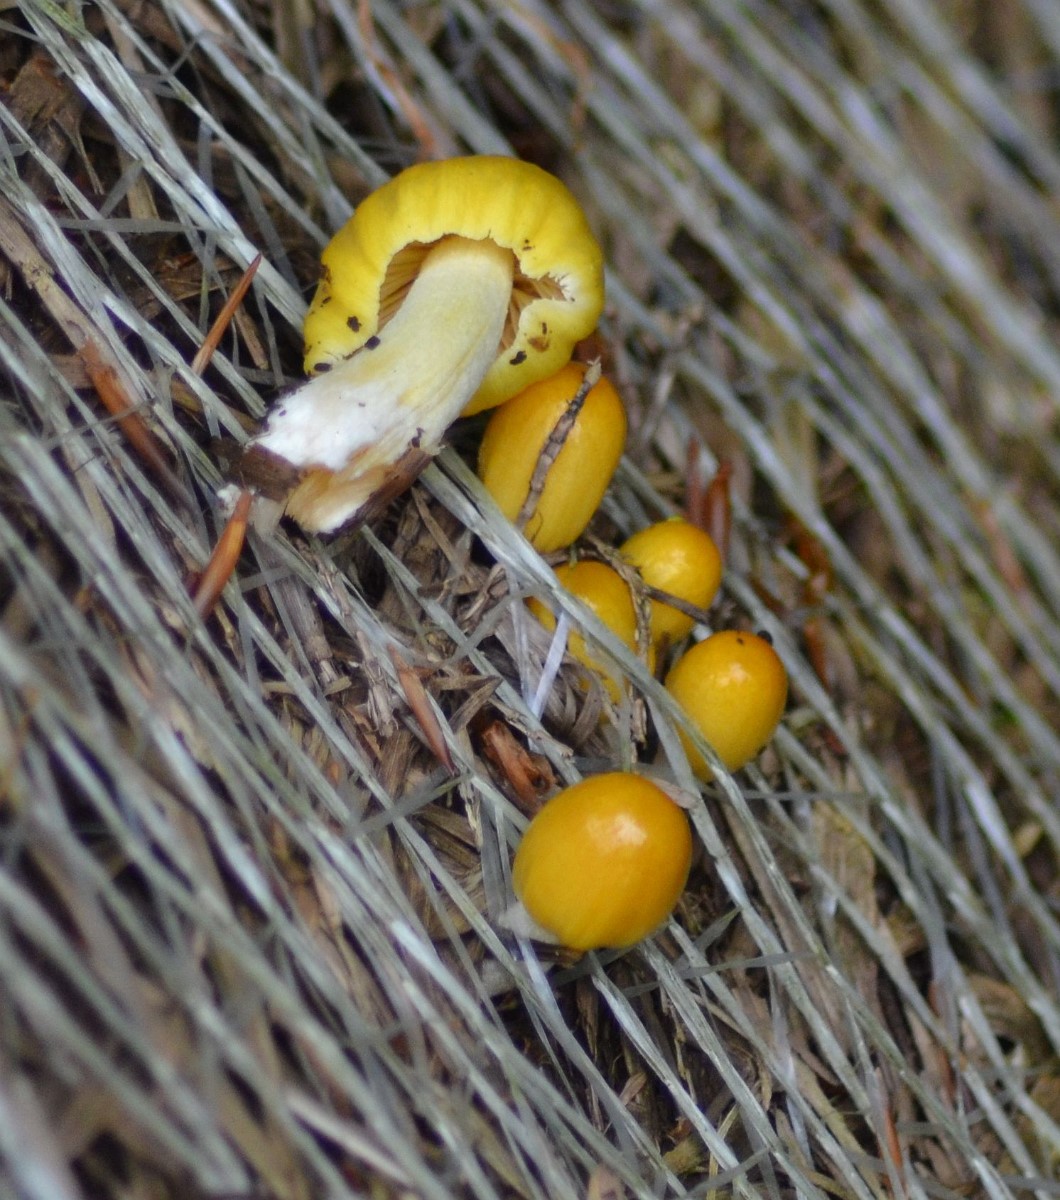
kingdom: Fungi
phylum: Basidiomycota
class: Agaricomycetes
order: Agaricales
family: Bolbitiaceae
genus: Bolbitius
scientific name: Bolbitius titubans
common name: almindelig gulhat
